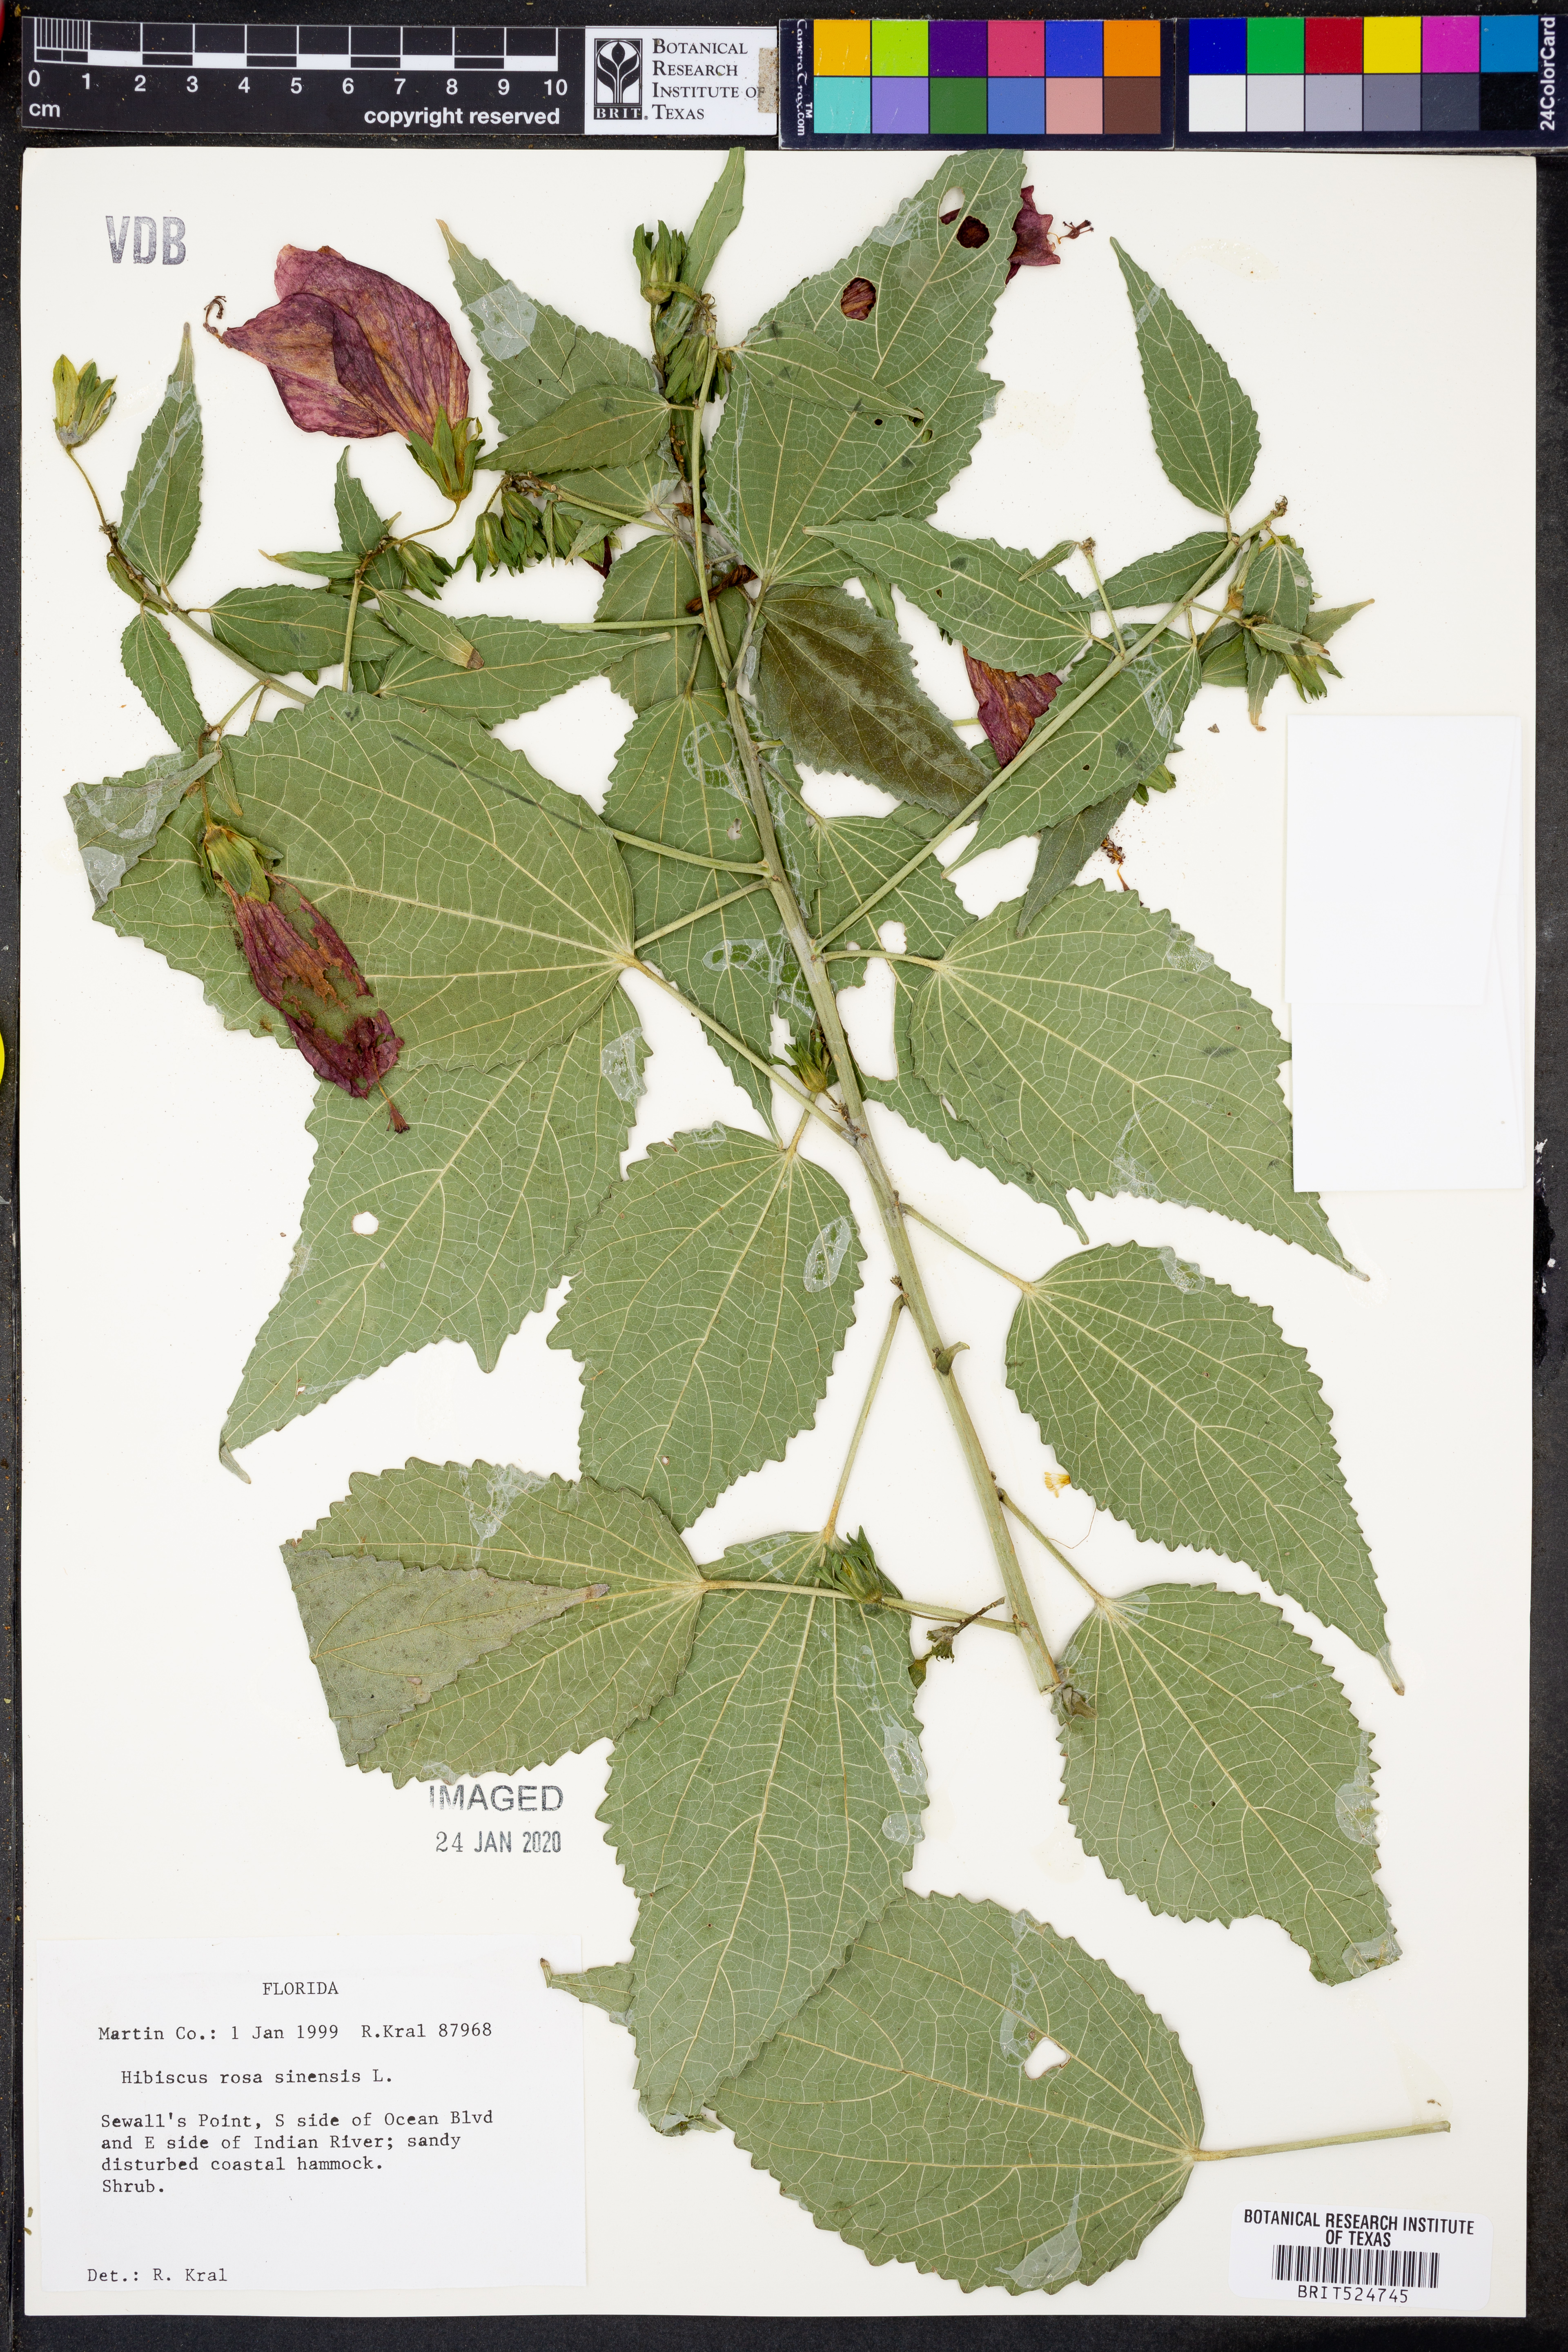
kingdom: Plantae
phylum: Tracheophyta
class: Magnoliopsida
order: Malvales
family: Malvaceae
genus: Hibiscus
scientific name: Hibiscus rosa-sinensis
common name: Hibiscus
